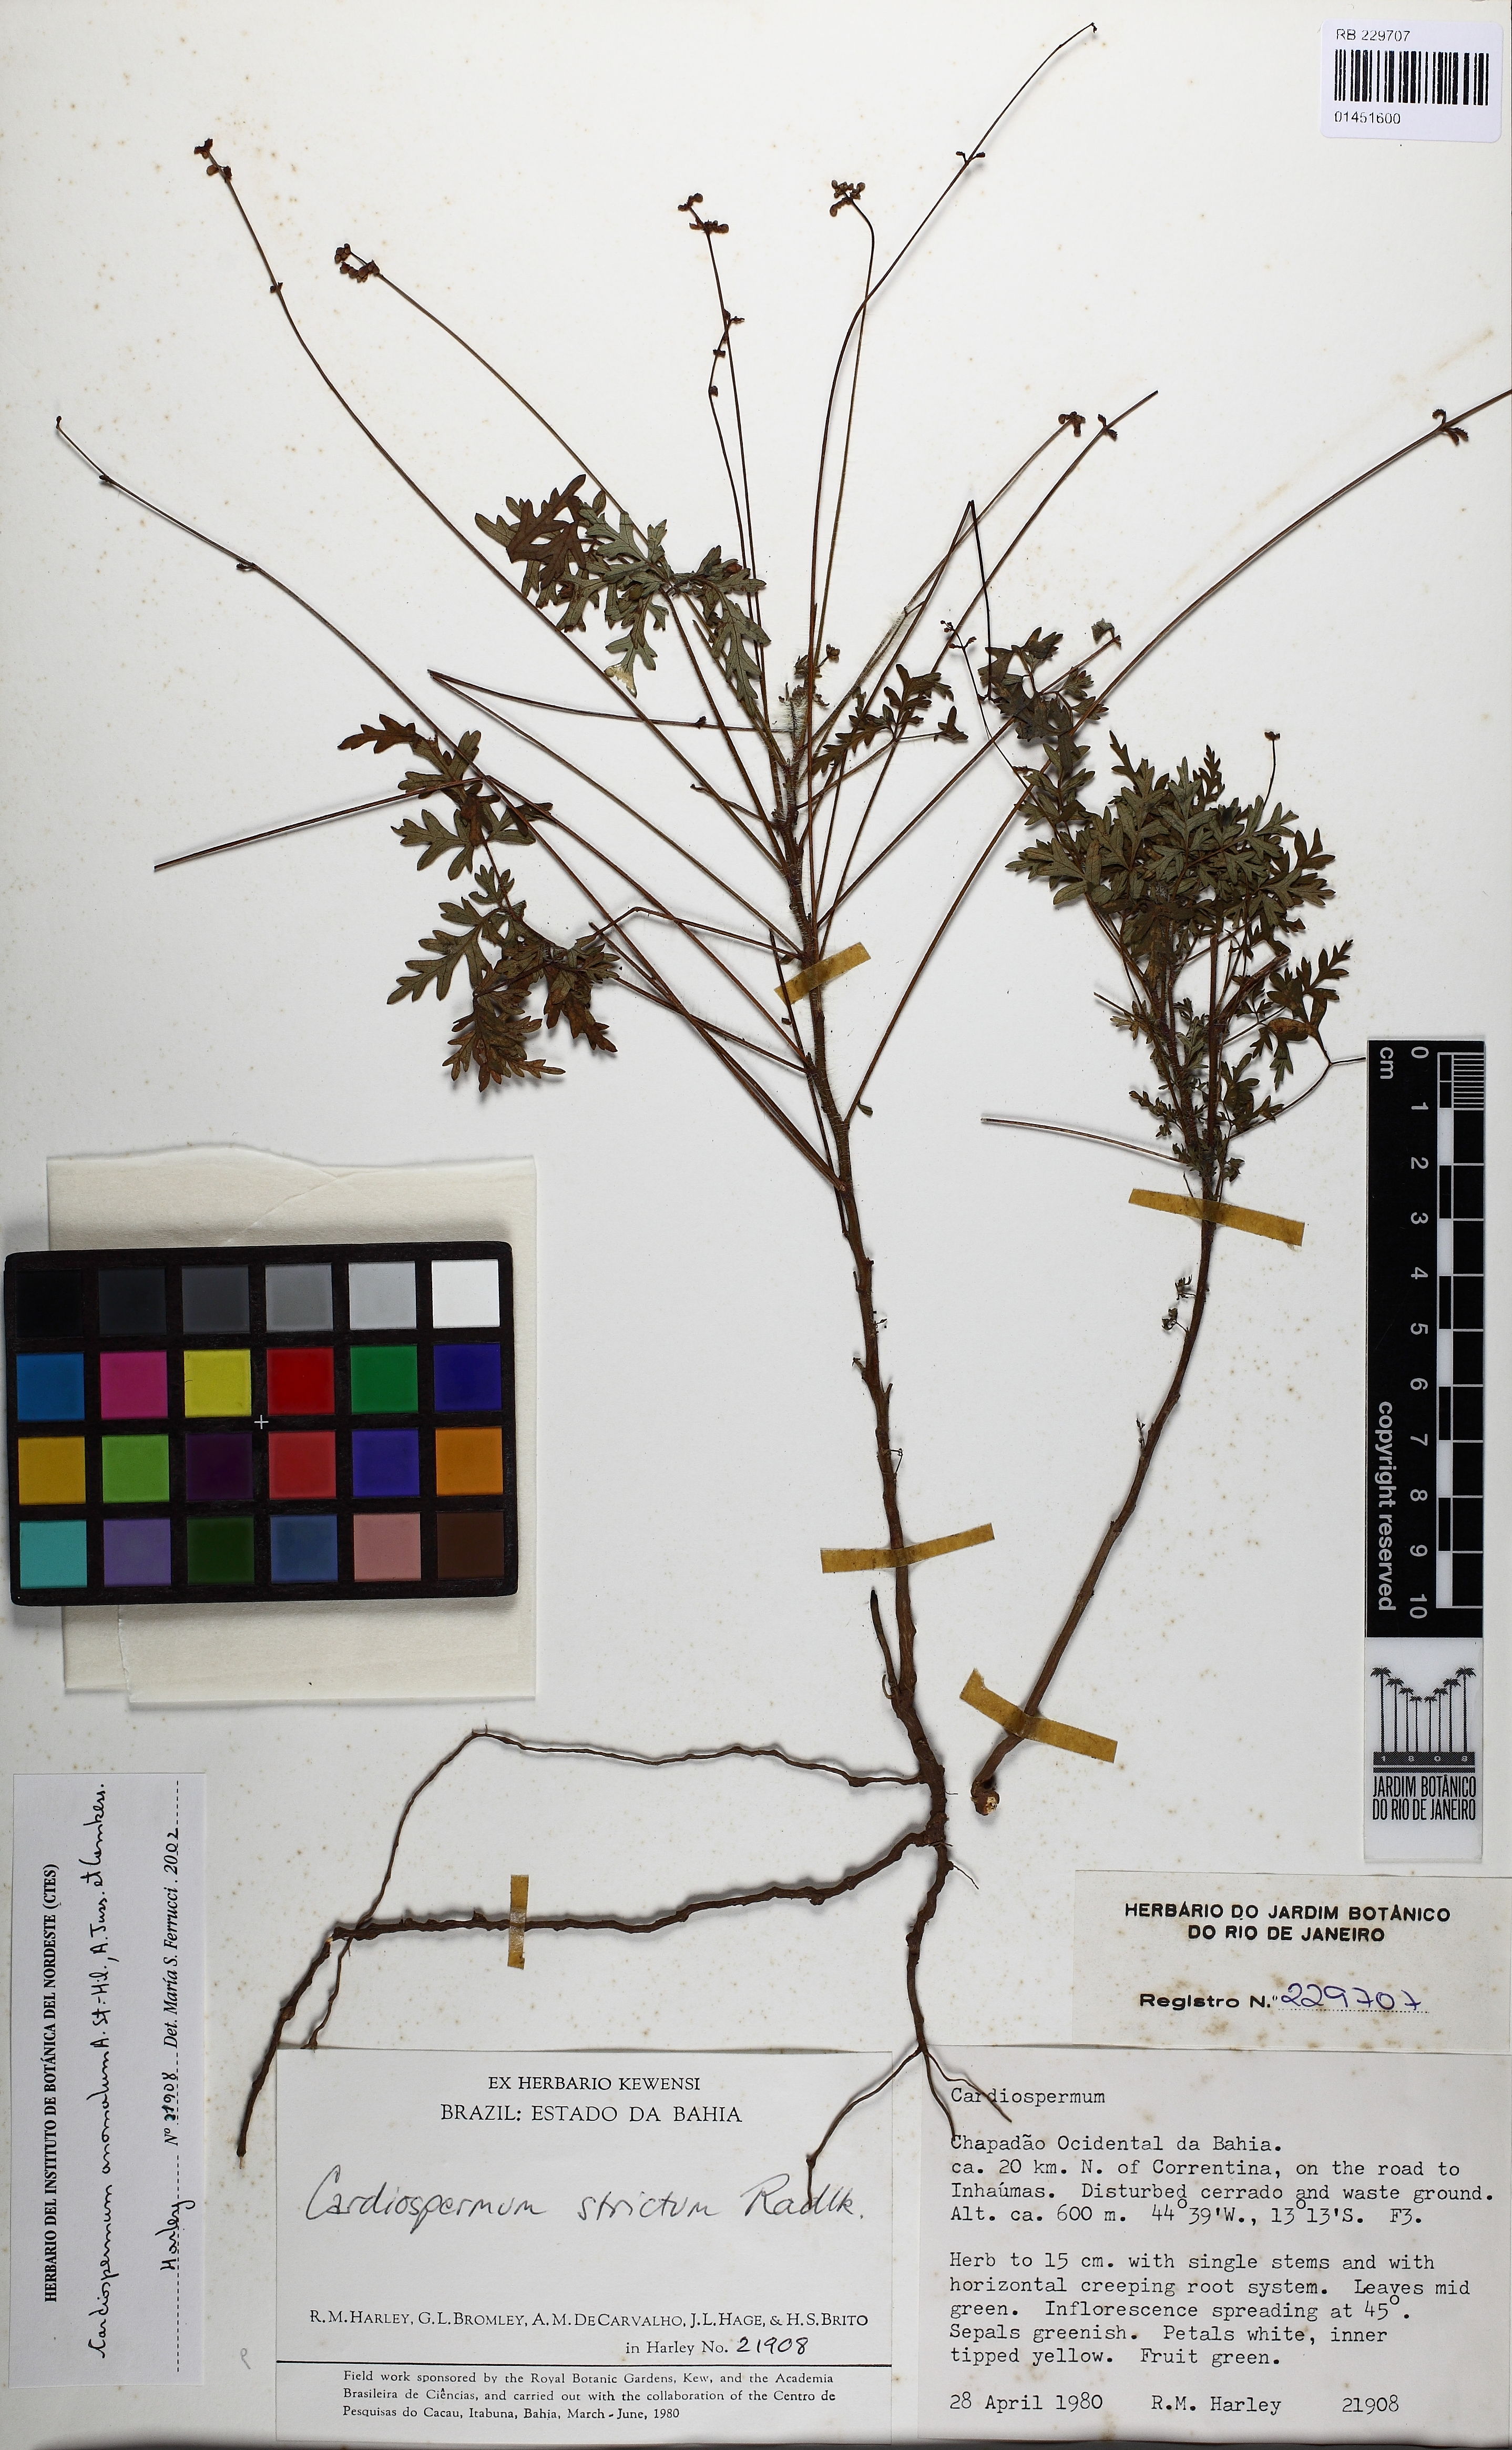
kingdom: Plantae
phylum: Tracheophyta
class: Magnoliopsida
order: Sapindales
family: Sapindaceae
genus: Cardiospermum
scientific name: Cardiospermum anomalum
